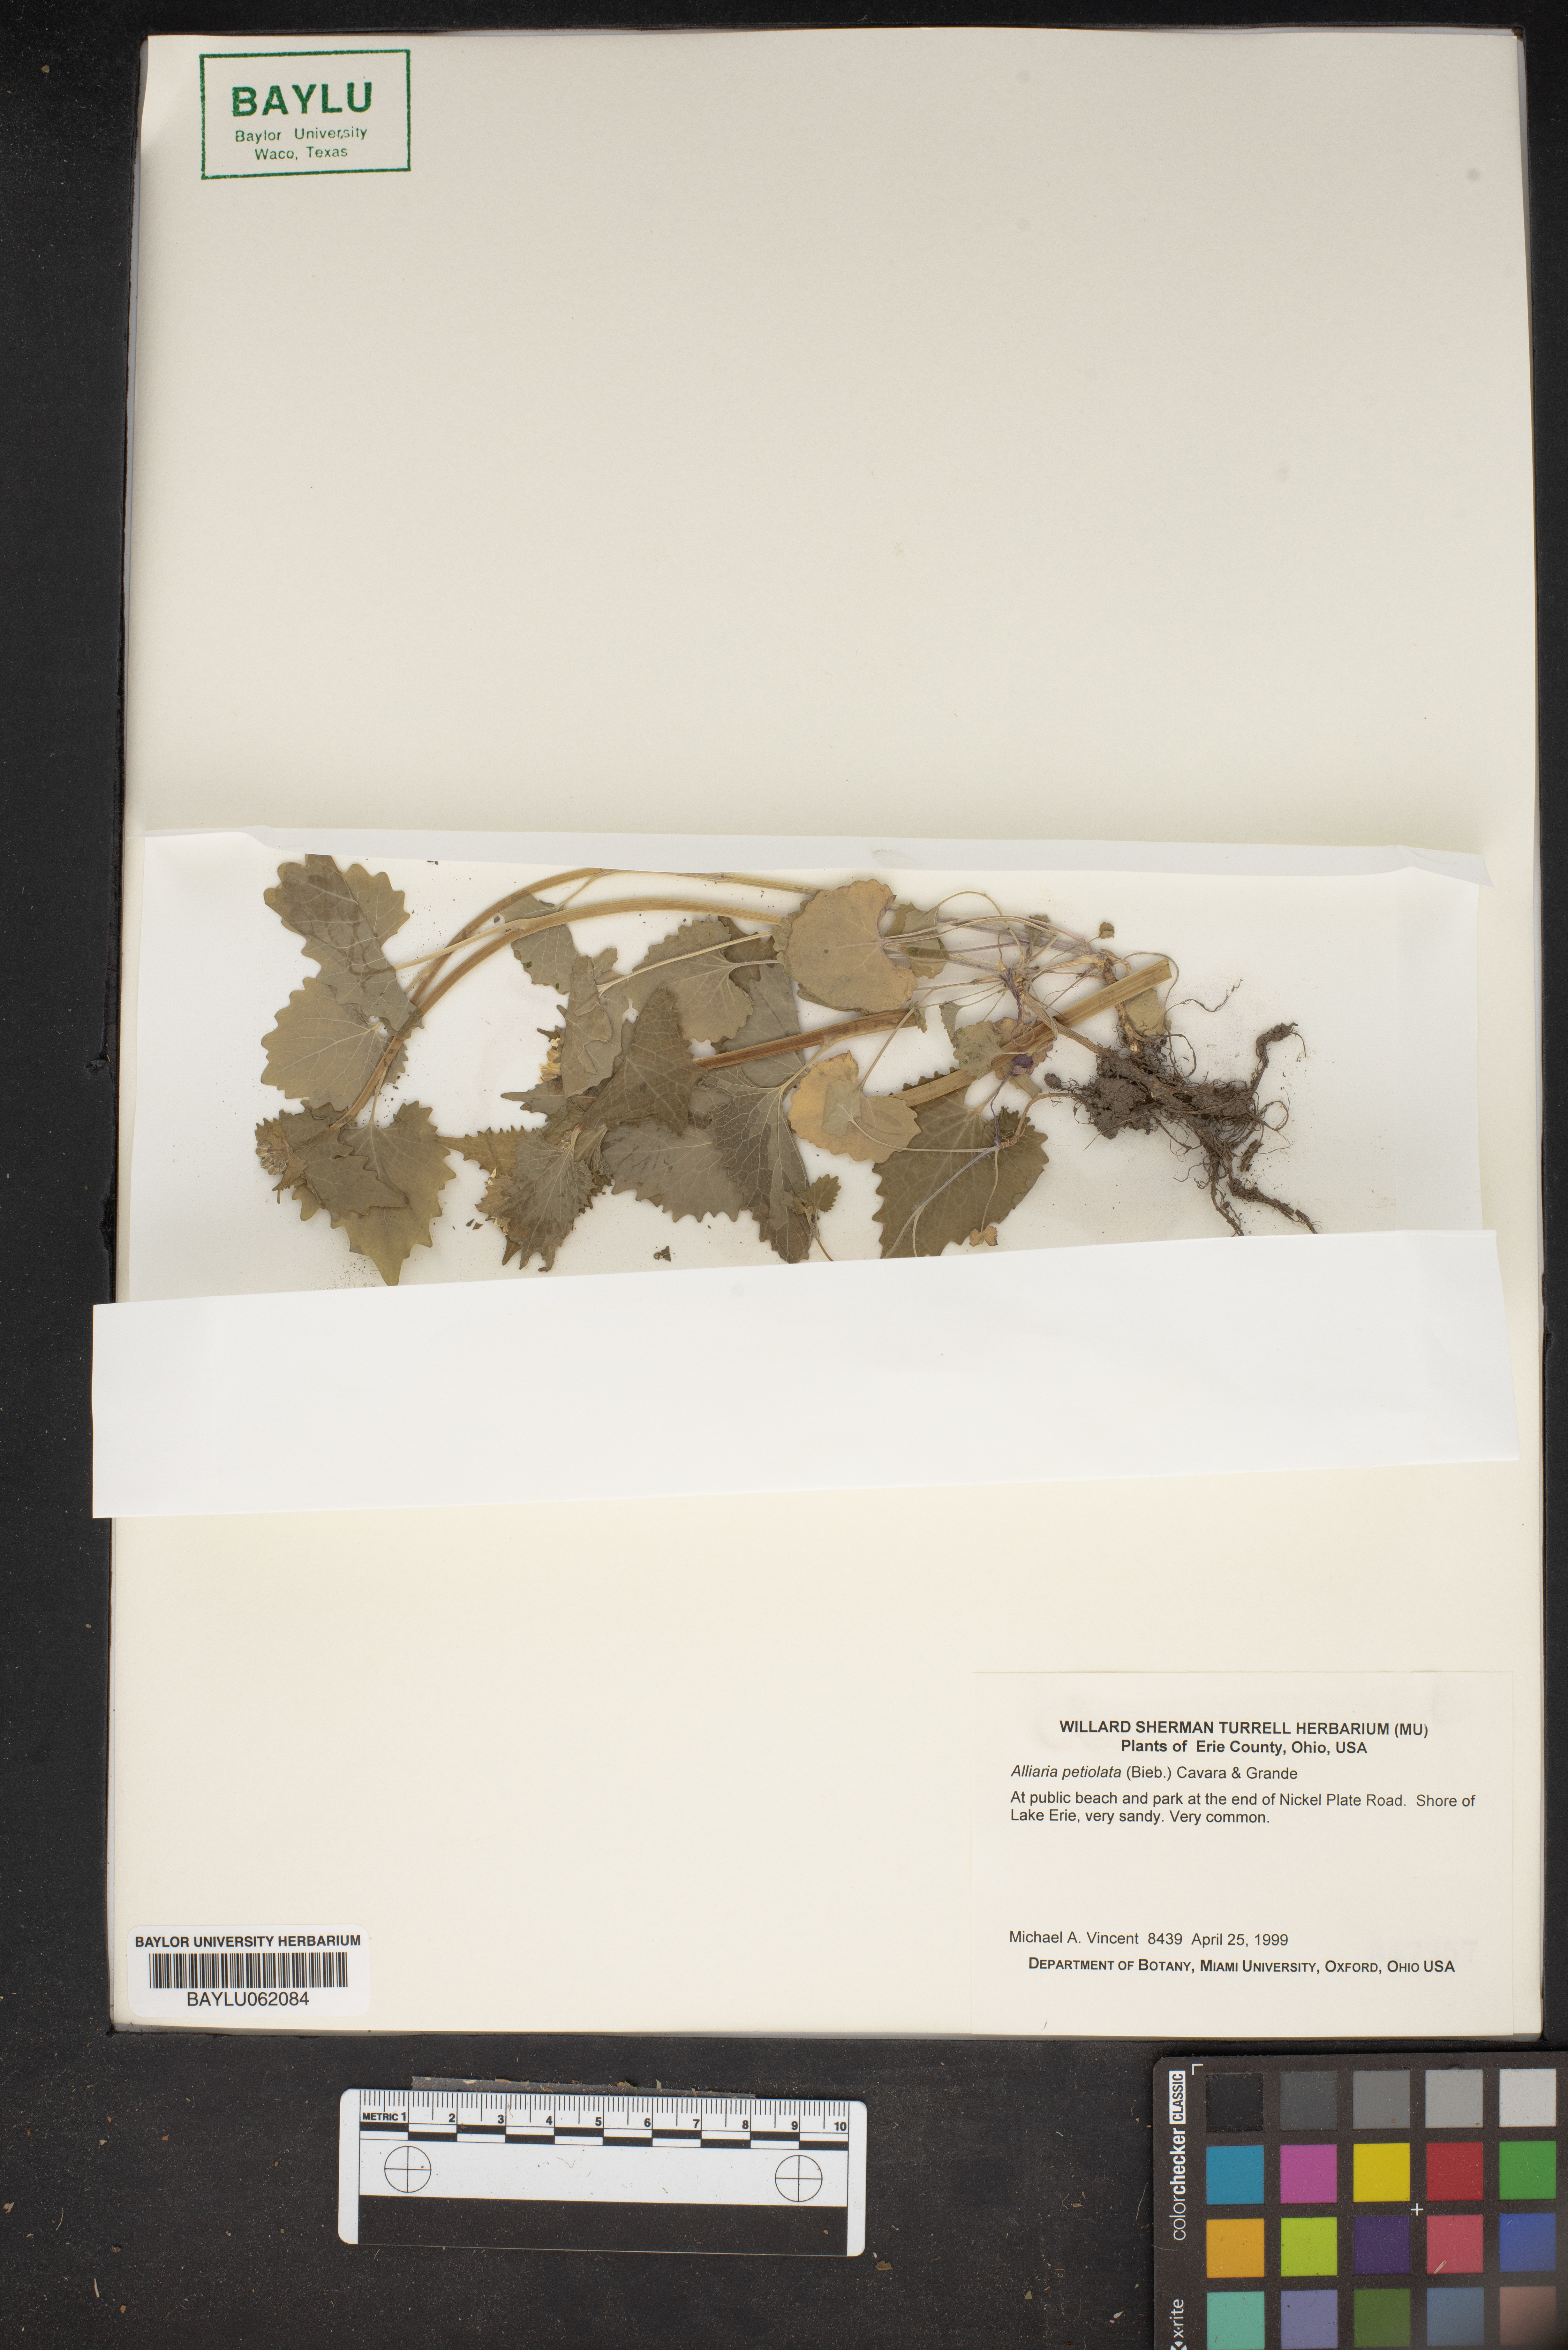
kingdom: Plantae
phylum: Tracheophyta
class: Magnoliopsida
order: Brassicales
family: Brassicaceae
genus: Alliaria
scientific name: Alliaria petiolata
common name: Garlic mustard
